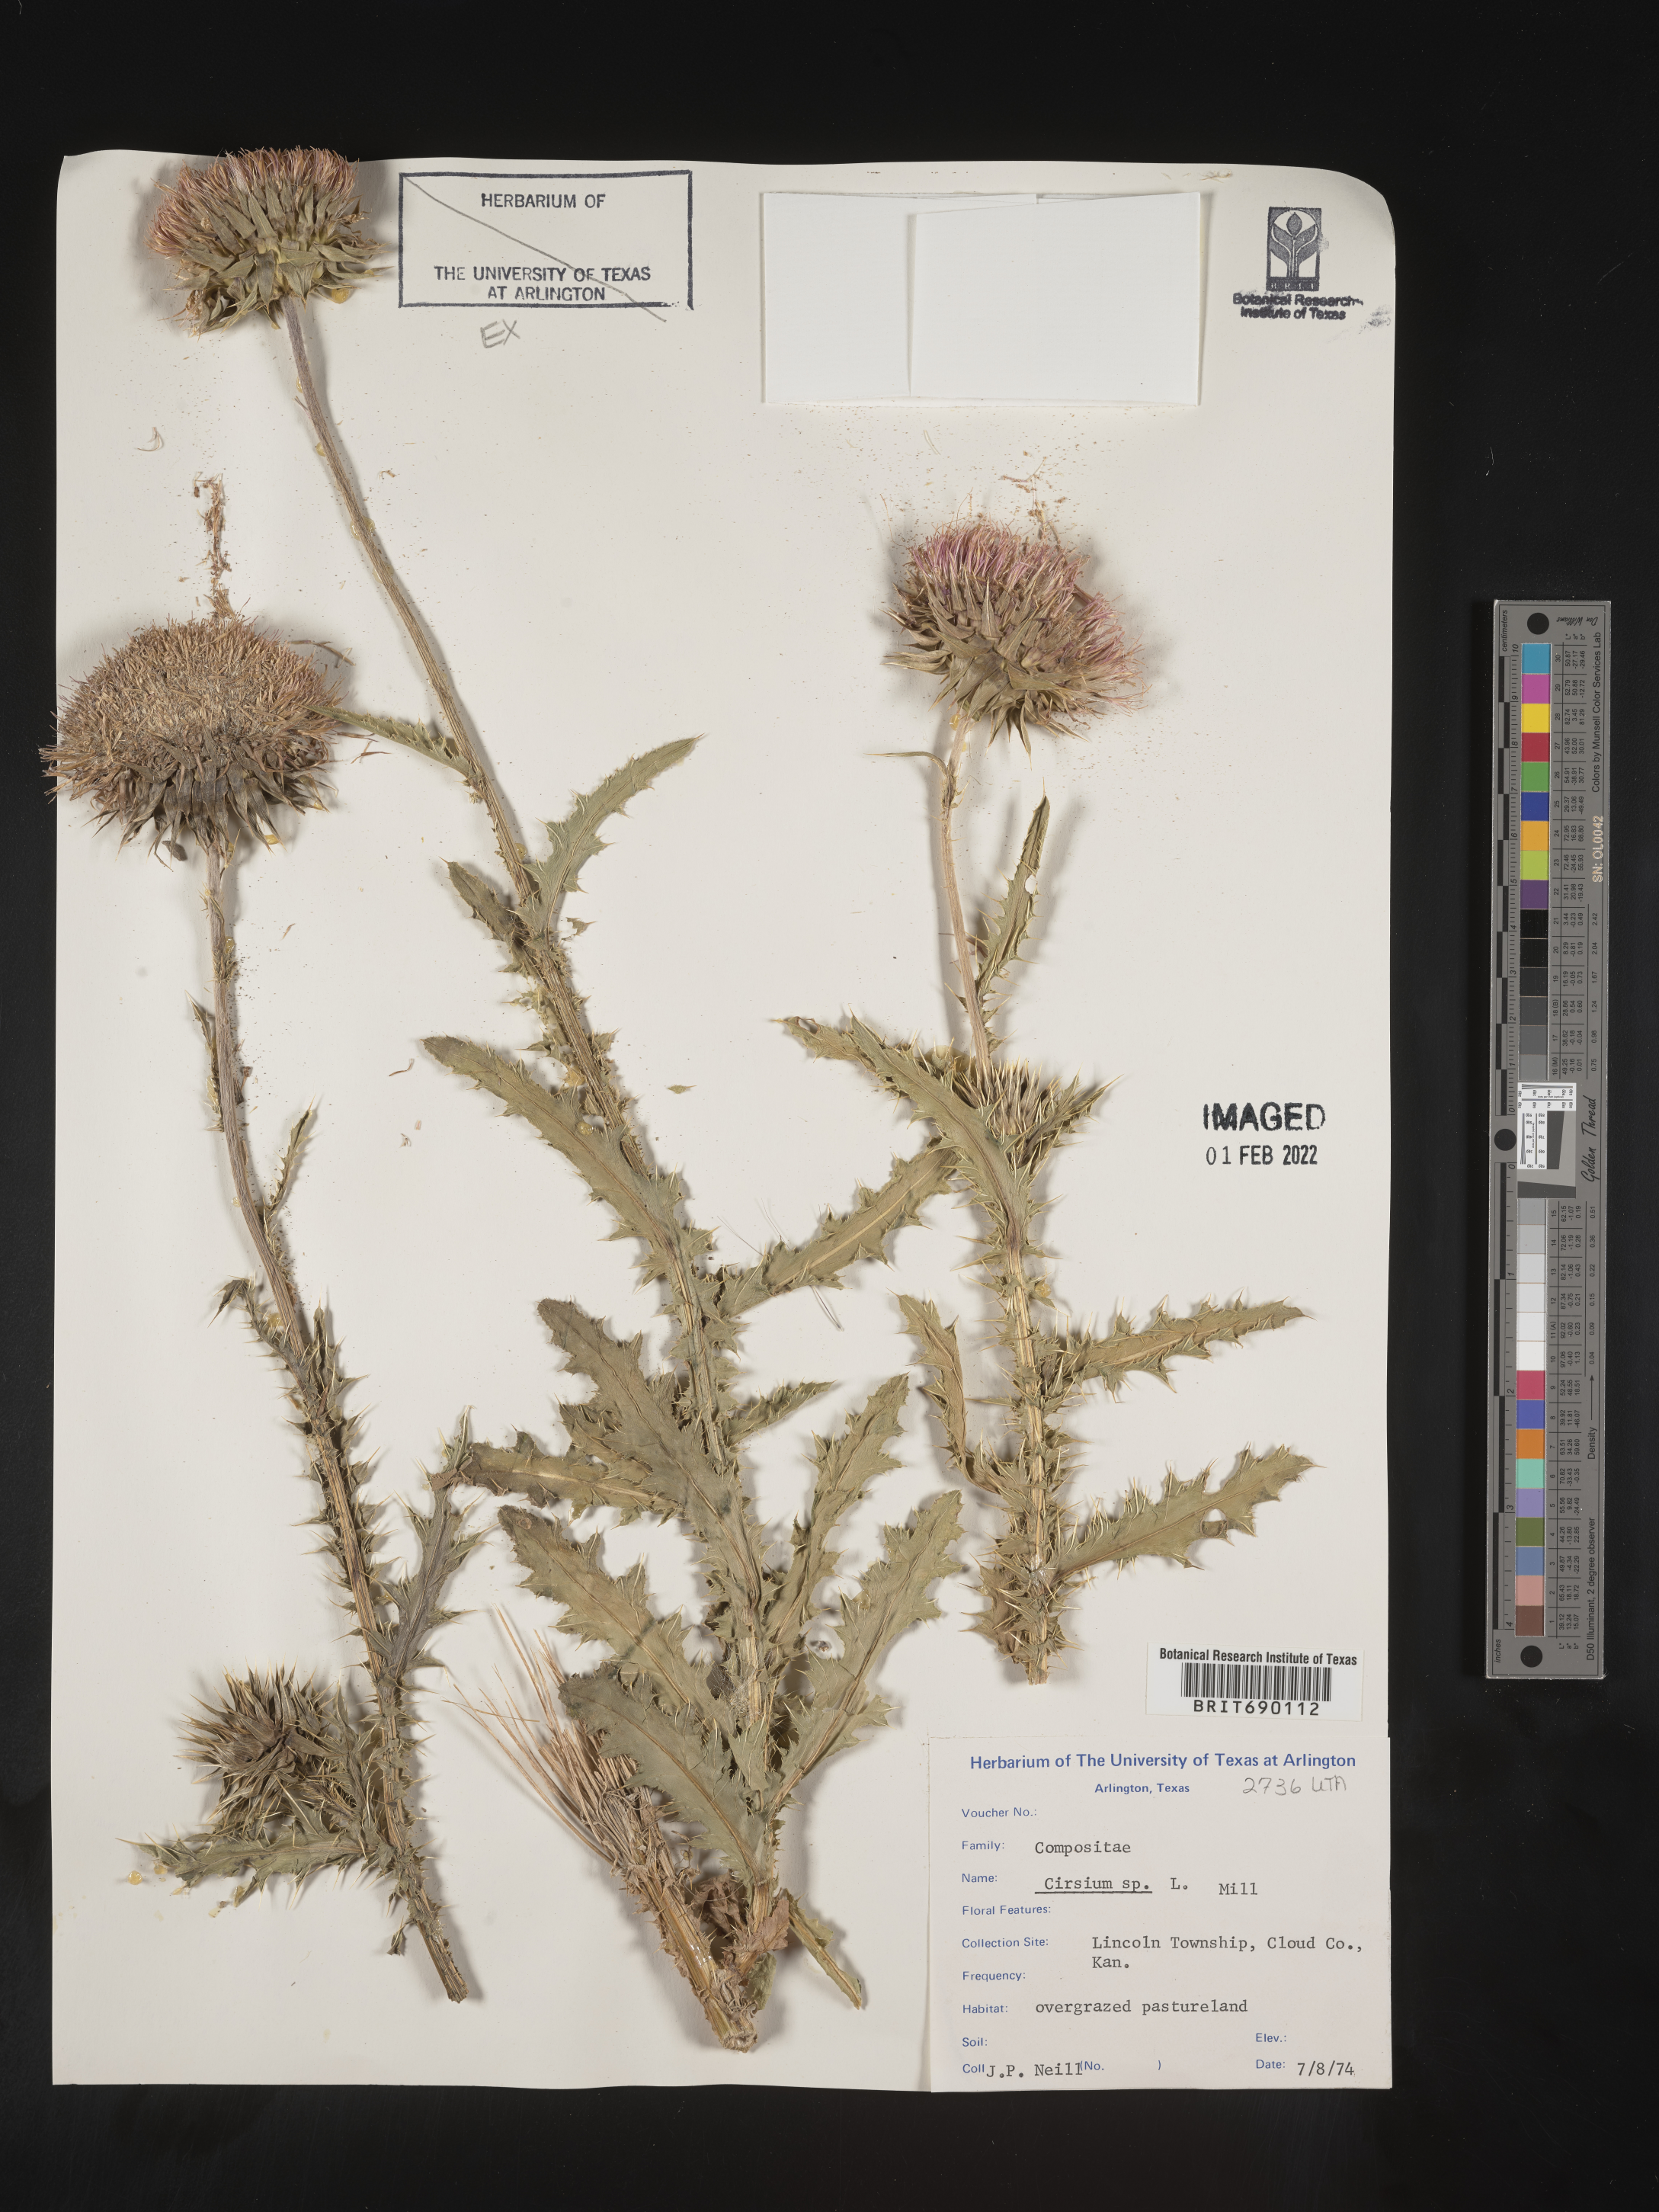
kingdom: Plantae
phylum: Tracheophyta
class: Magnoliopsida
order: Asterales
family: Asteraceae
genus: Cirsium
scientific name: Cirsium
